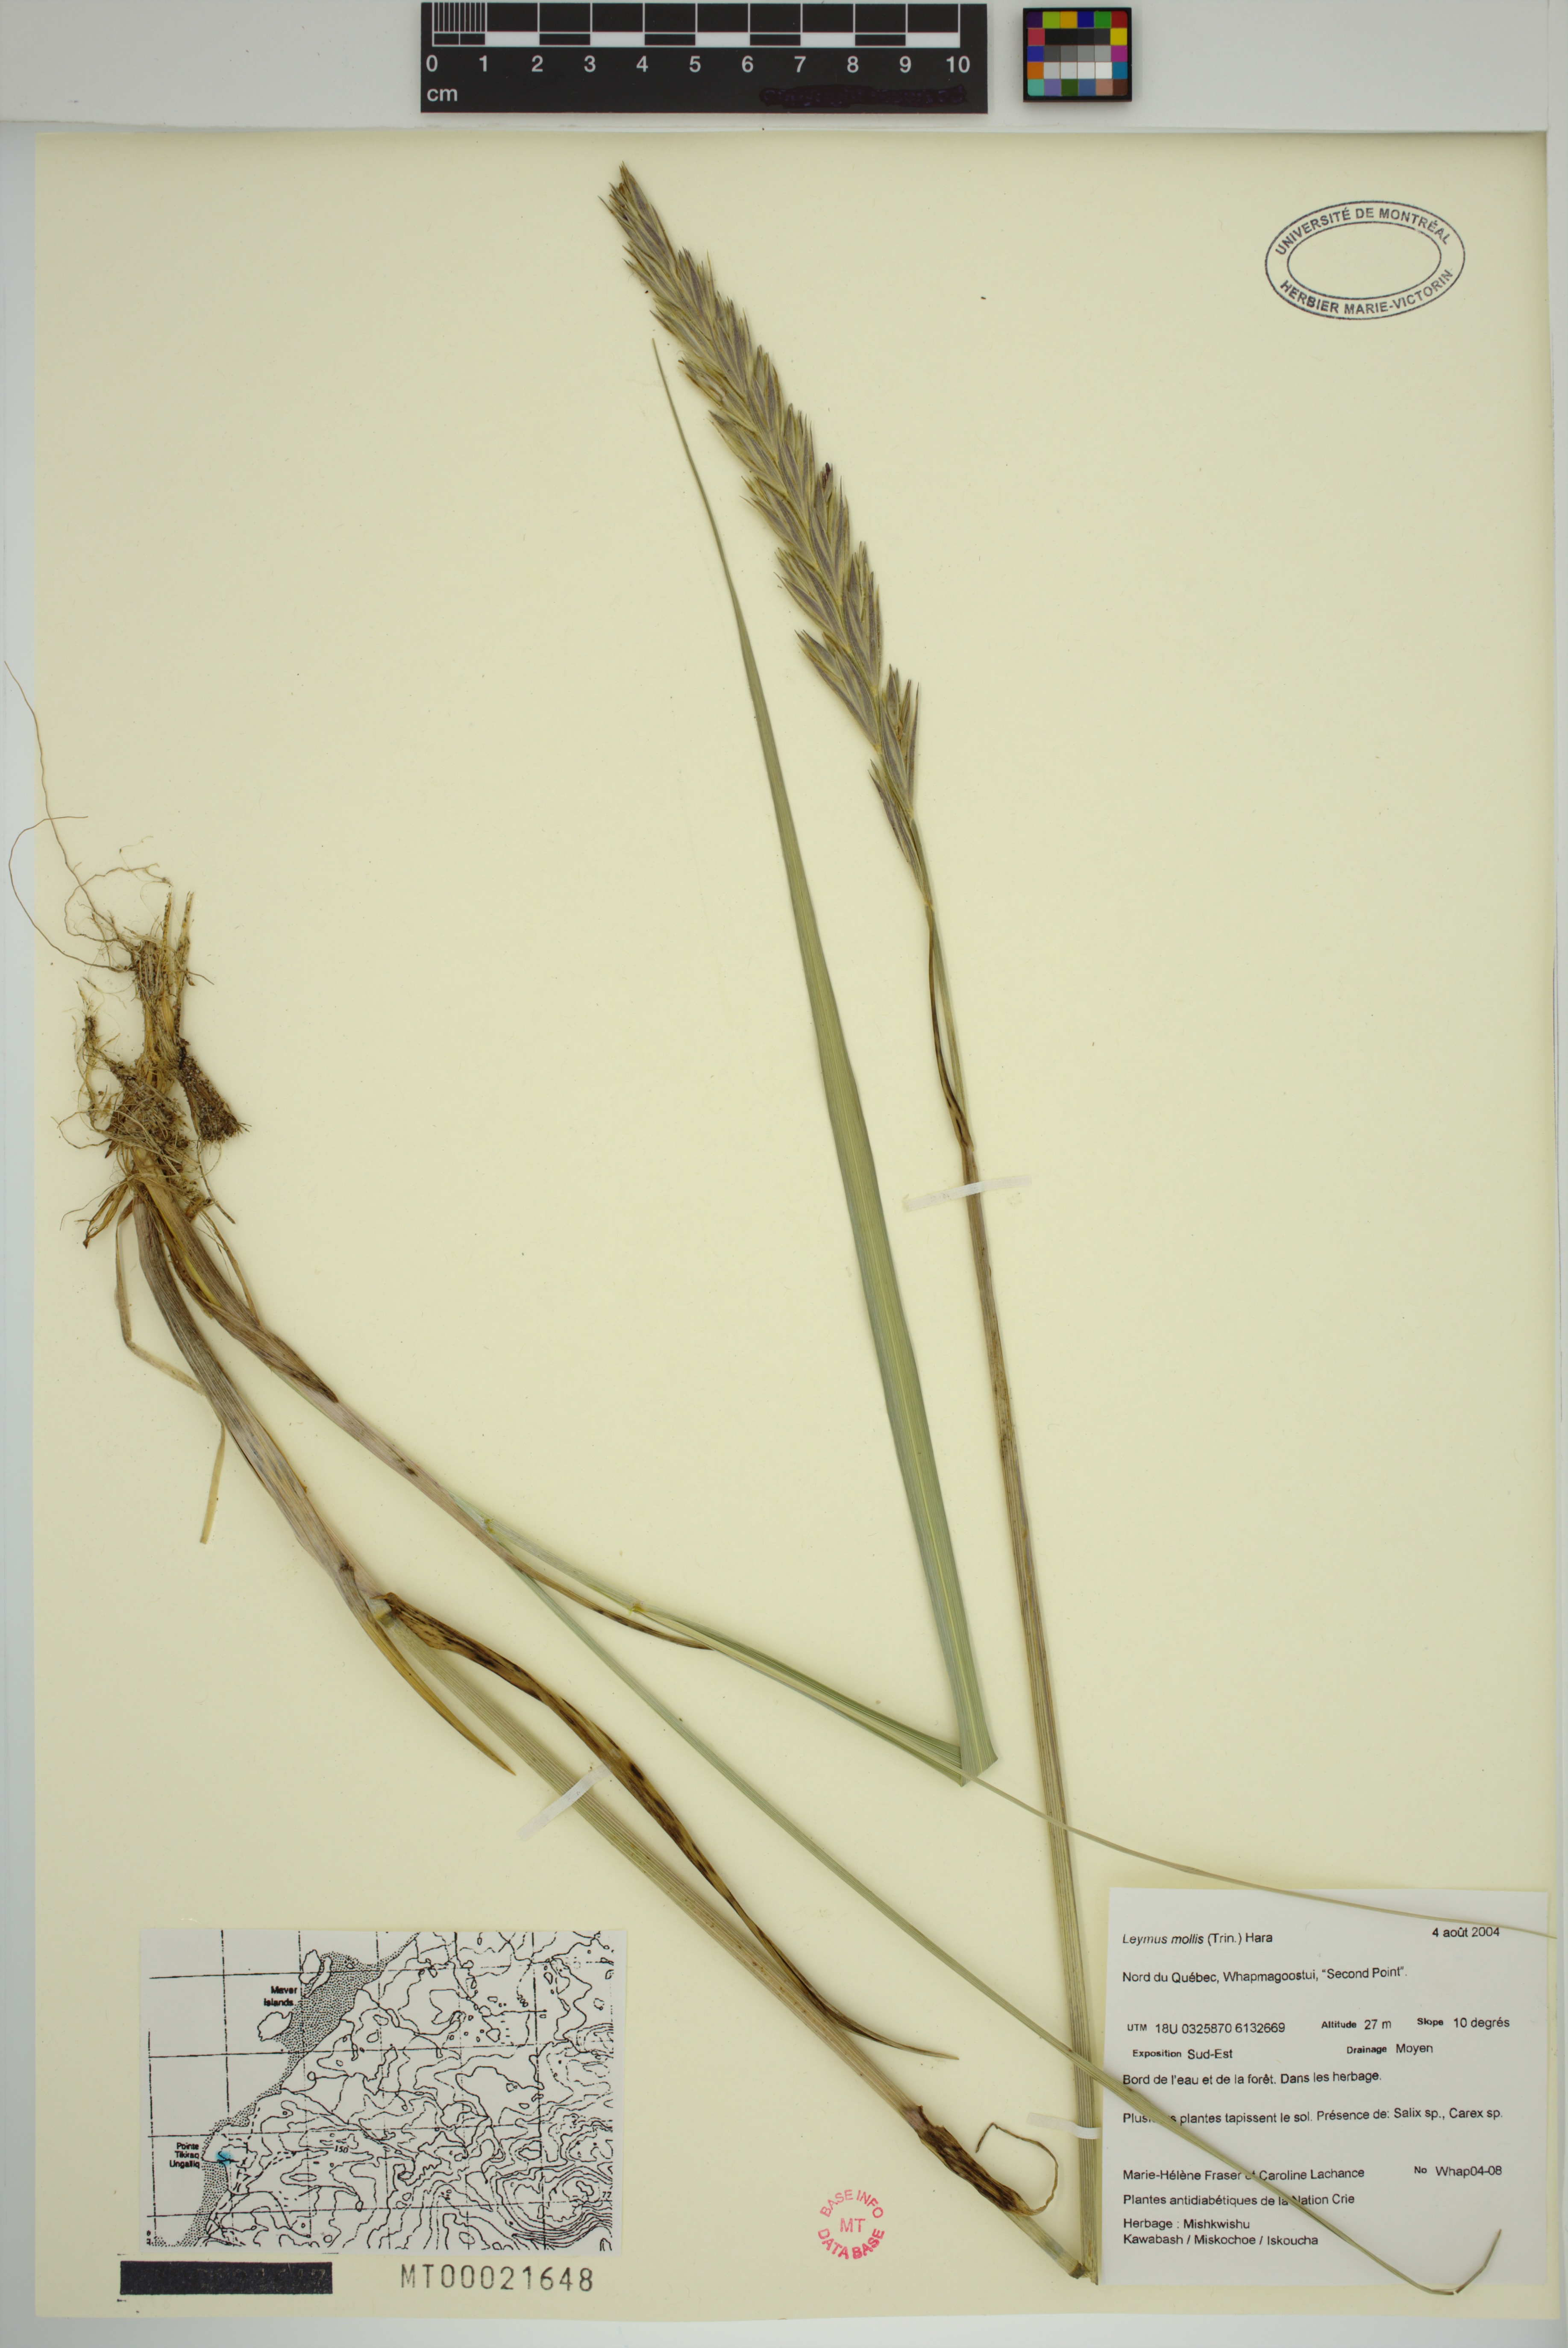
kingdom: Plantae
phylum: Tracheophyta
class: Liliopsida
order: Poales
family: Poaceae
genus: Leymus
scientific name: Leymus mollis
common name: American dune grass
